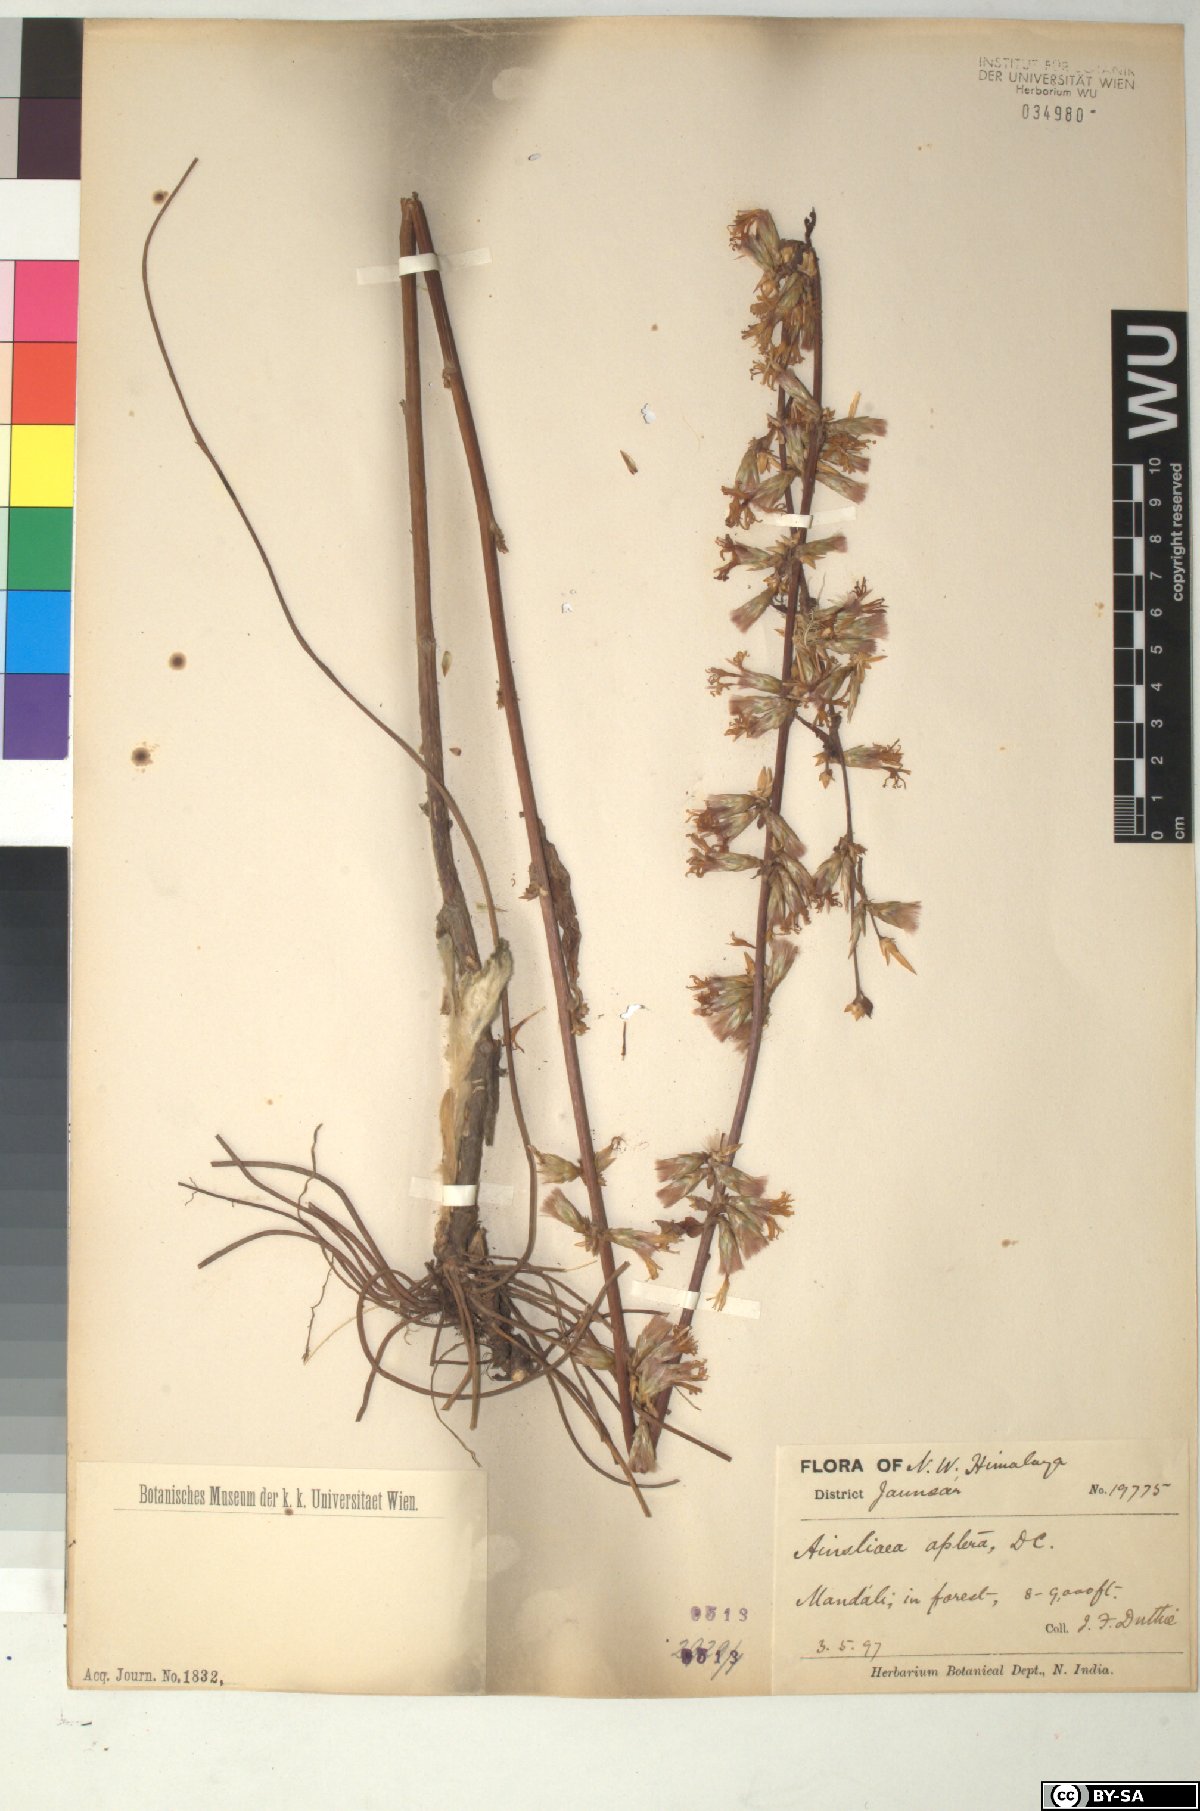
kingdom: Plantae
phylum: Tracheophyta
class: Magnoliopsida
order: Asterales
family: Asteraceae
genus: Ainsliaea
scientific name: Ainsliaea aptera
